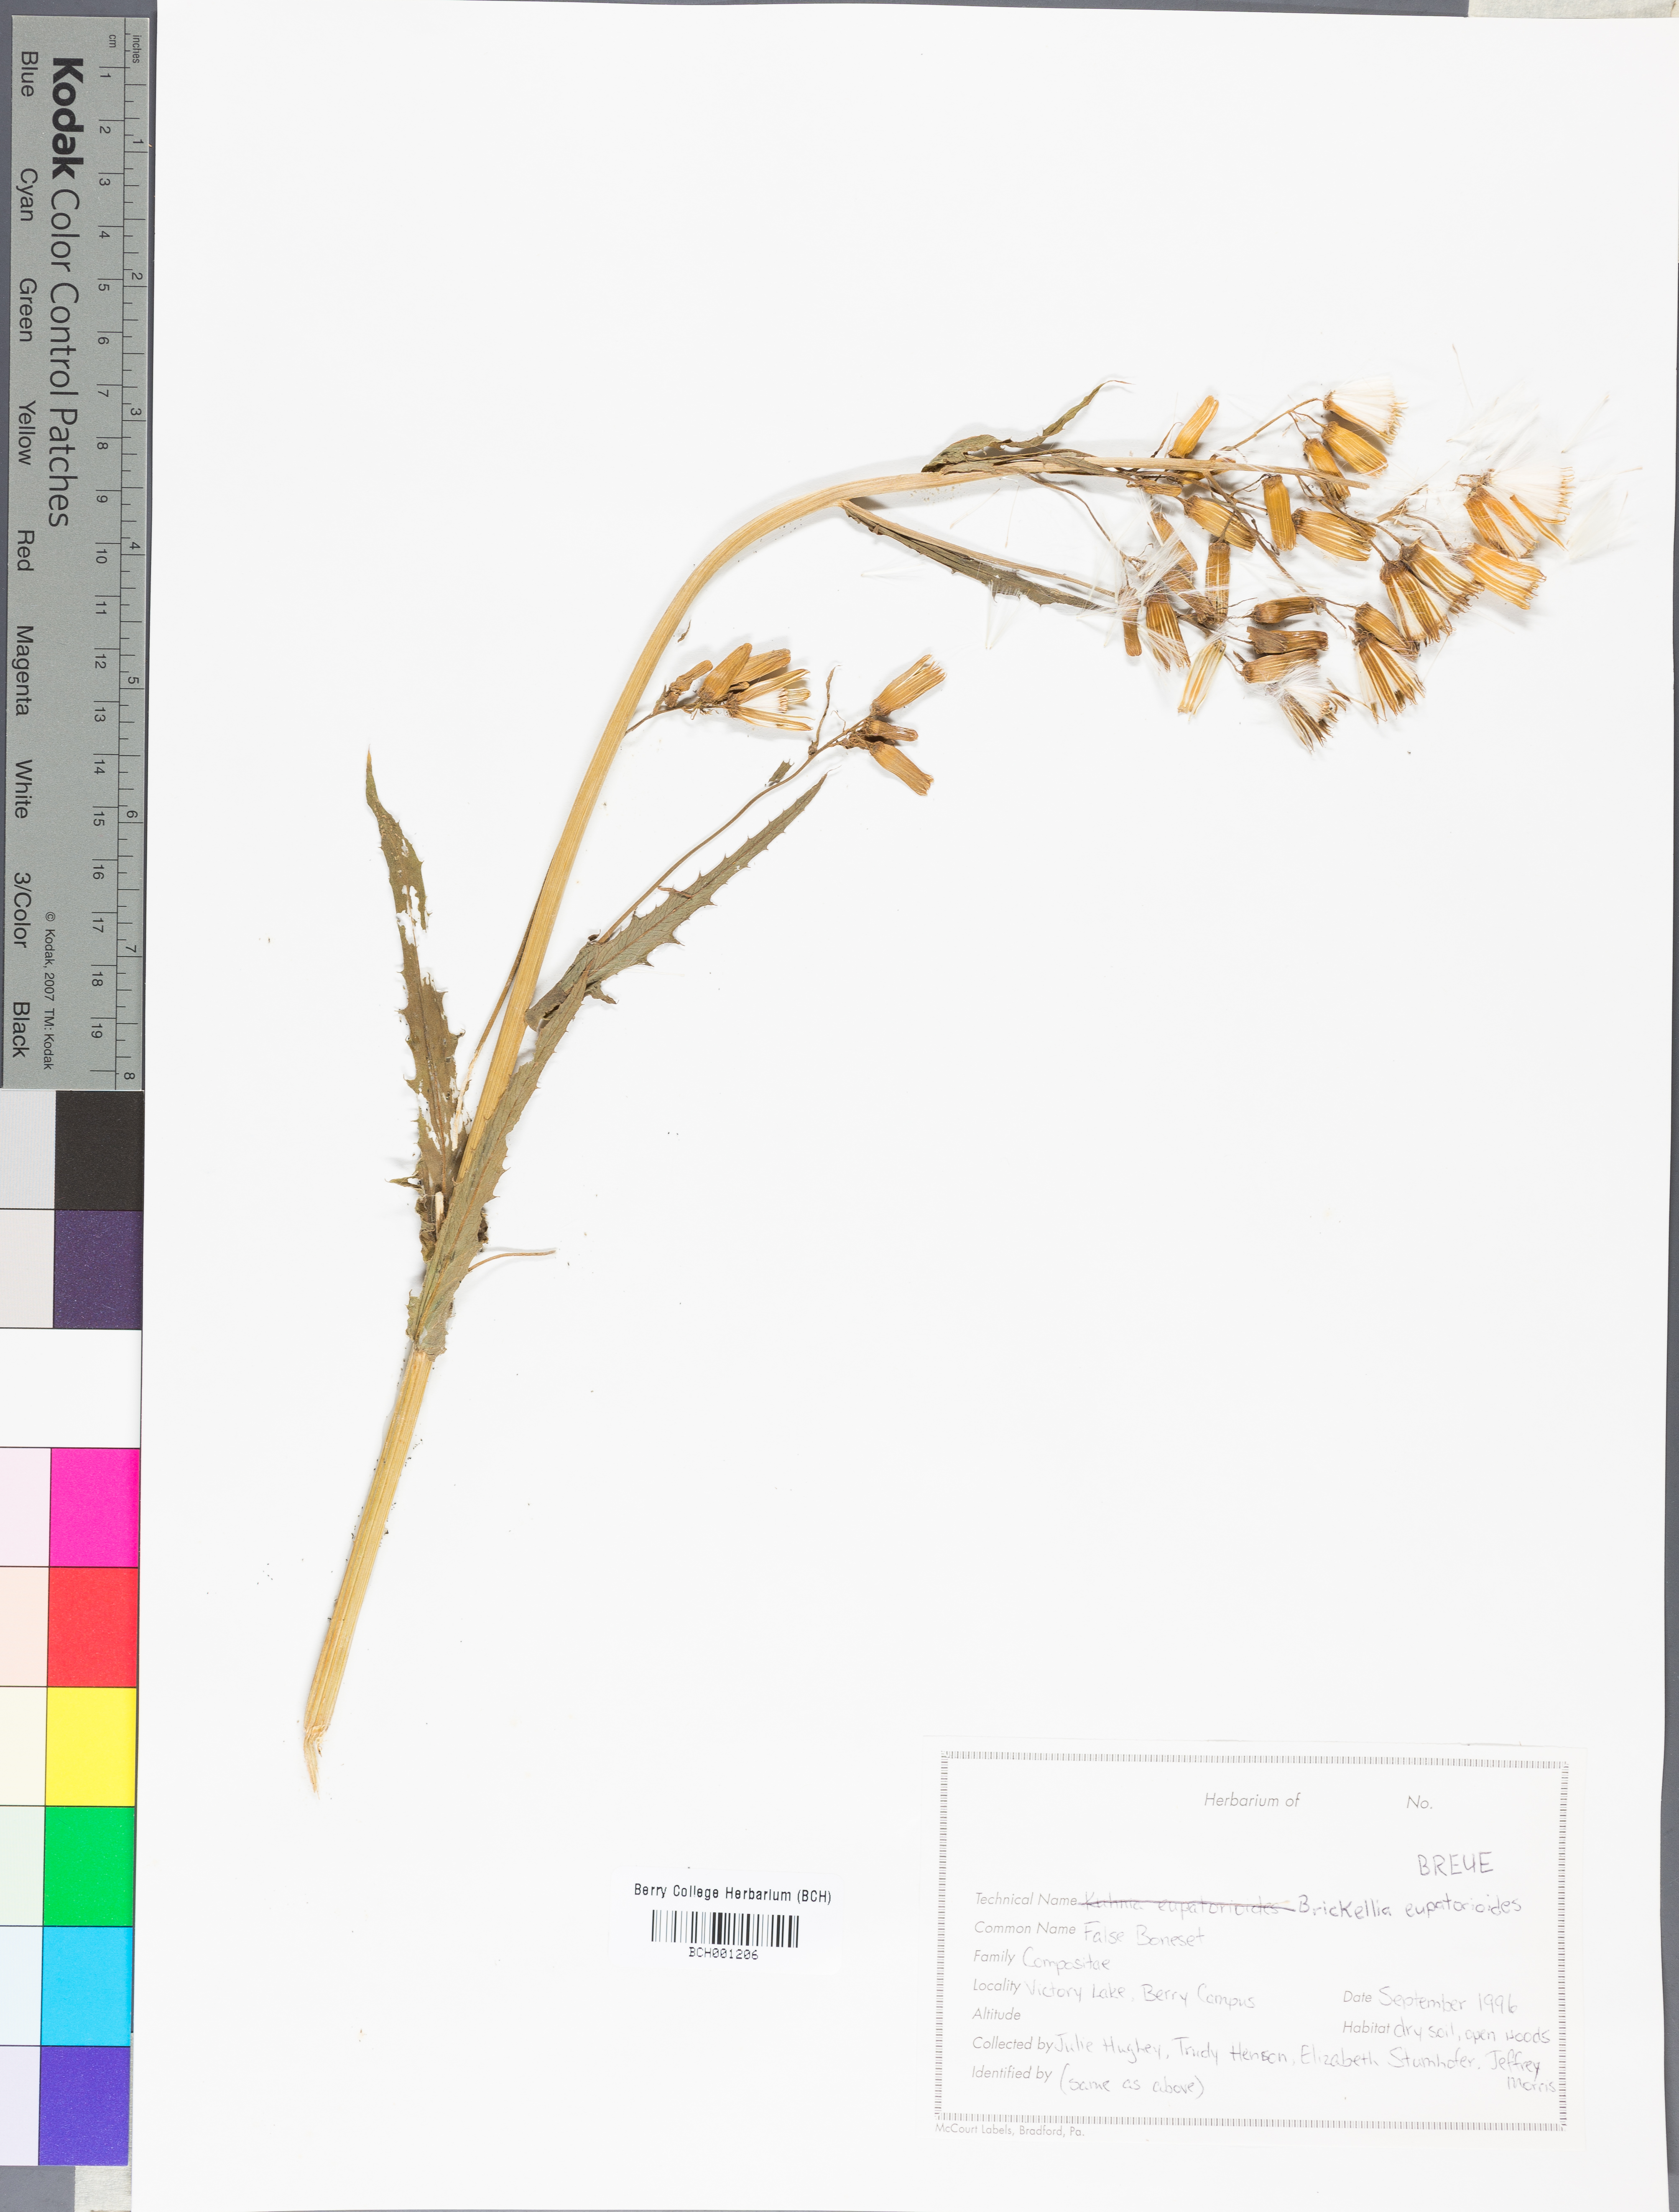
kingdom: Plantae
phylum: Tracheophyta
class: Magnoliopsida
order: Asterales
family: Asteraceae
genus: Brickellia
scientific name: Brickellia eupatorioides
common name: False boneset
